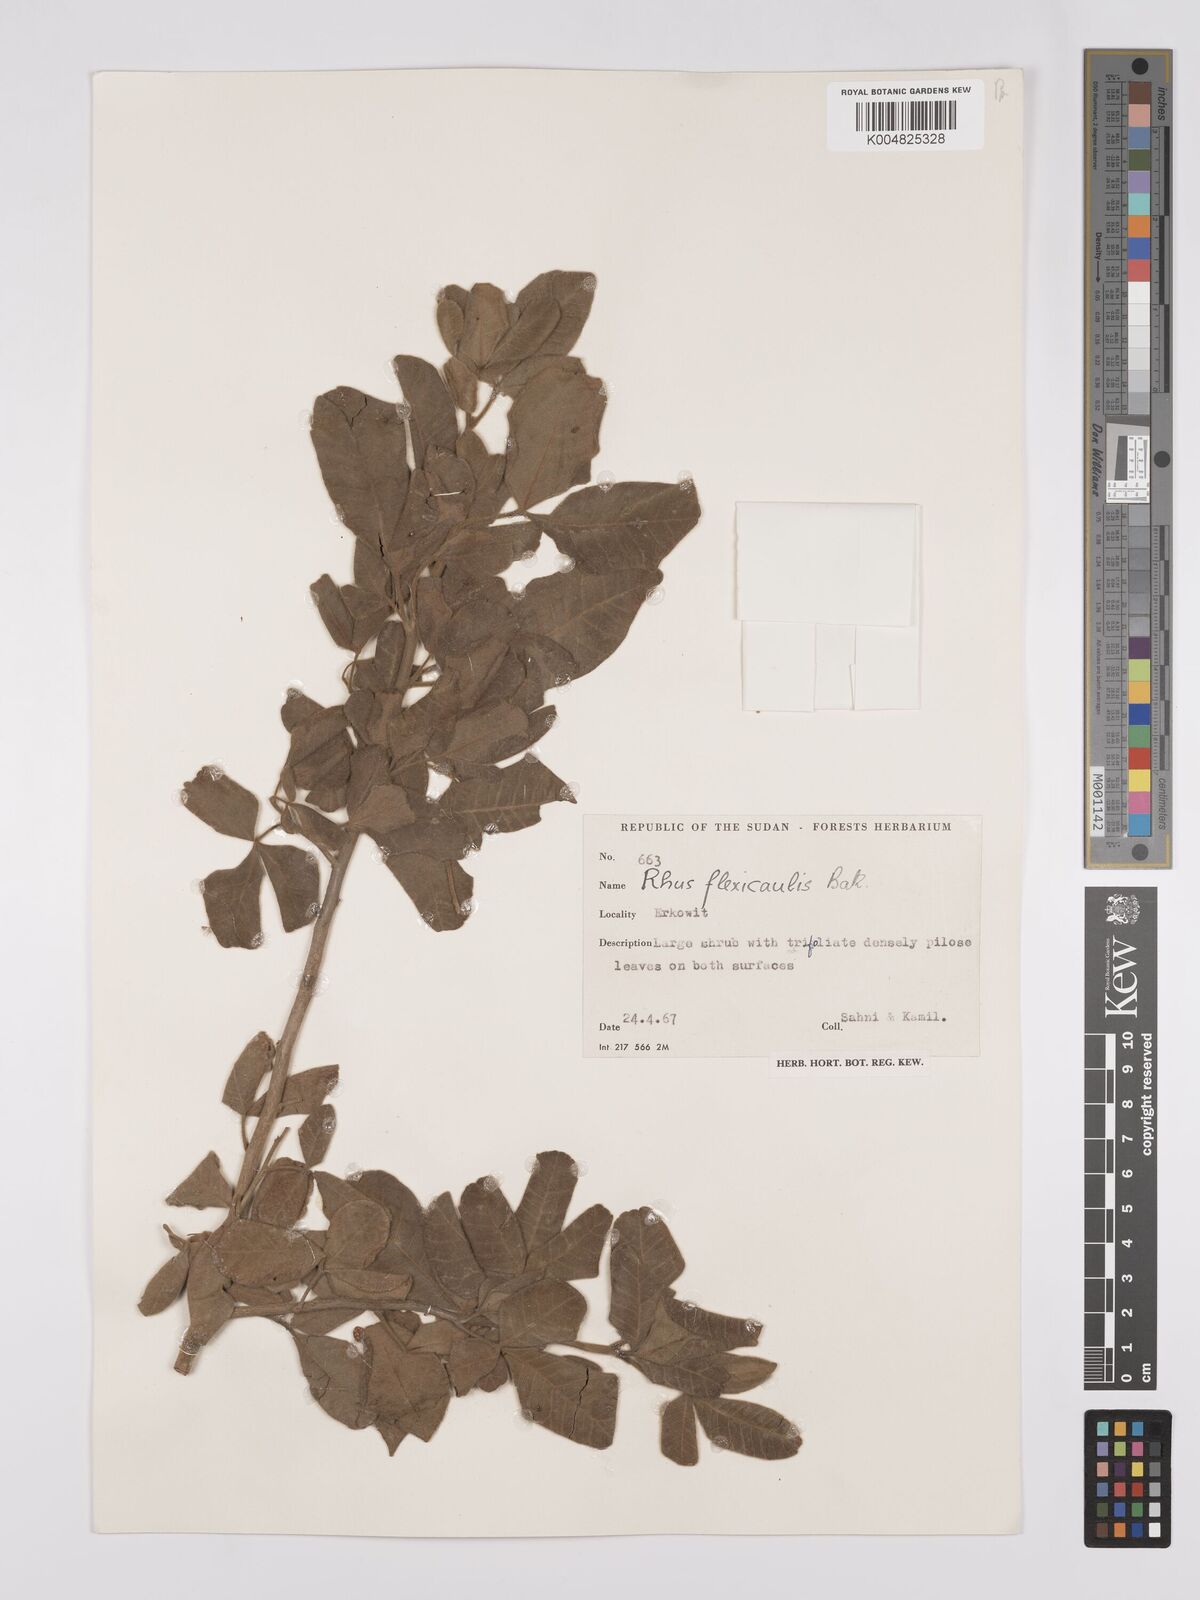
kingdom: Plantae
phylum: Tracheophyta
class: Magnoliopsida
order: Sapindales
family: Anacardiaceae
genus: Searsia
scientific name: Searsia flexicaulis
